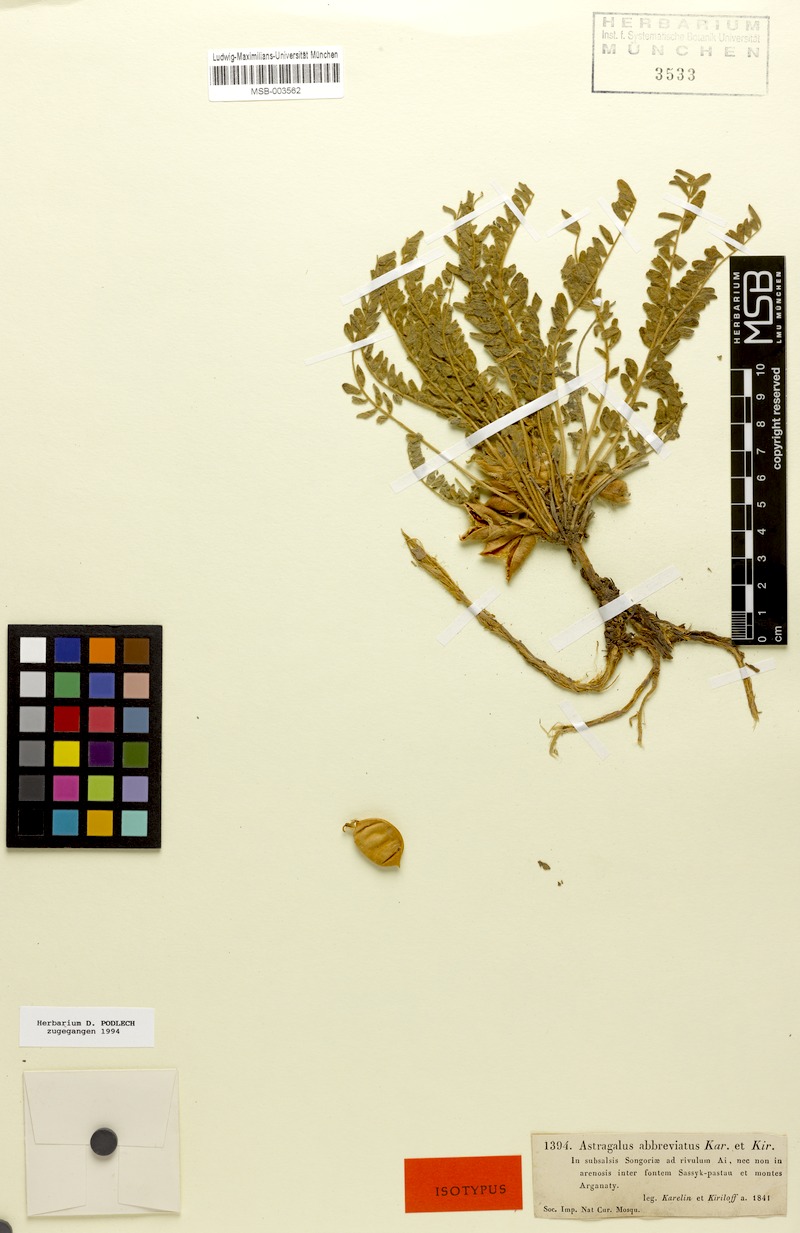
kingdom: Plantae
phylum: Tracheophyta
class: Magnoliopsida
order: Fabales
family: Fabaceae
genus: Astragalus
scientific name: Astragalus abbreviatus
